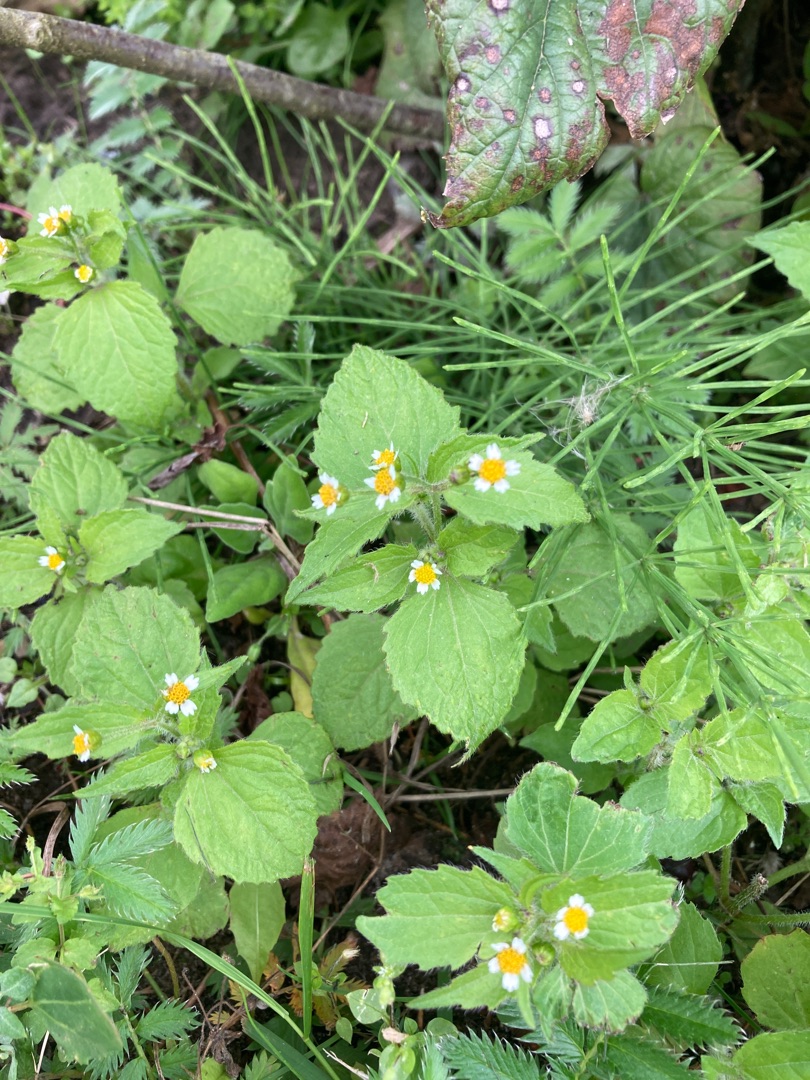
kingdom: Plantae
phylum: Tracheophyta
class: Magnoliopsida
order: Asterales
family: Asteraceae
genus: Galinsoga
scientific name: Galinsoga quadriradiata
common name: Kirtel-kortstråle
